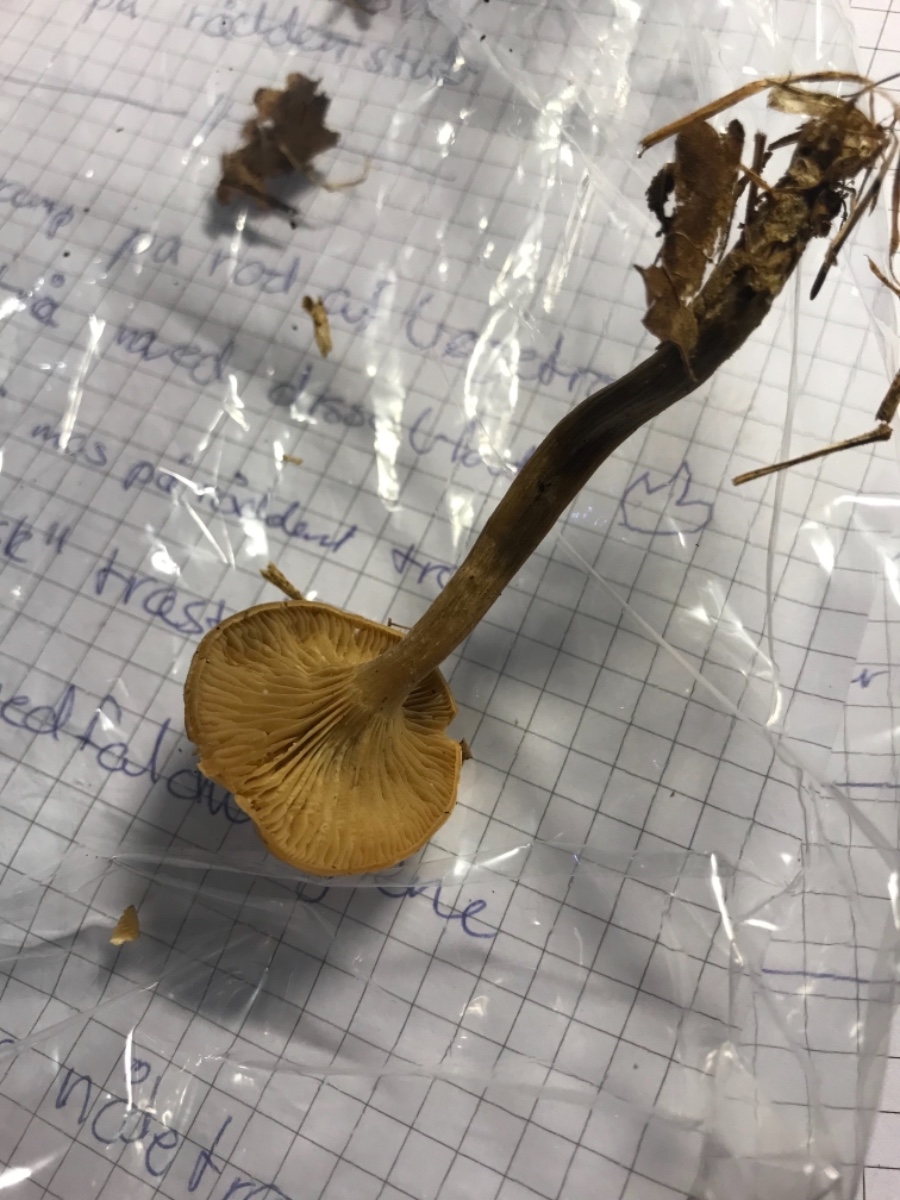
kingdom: Fungi
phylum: Basidiomycota
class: Agaricomycetes
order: Agaricales
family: Pseudoclitocybaceae
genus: Pseudoclitocybe
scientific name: Pseudoclitocybe cyathiformis
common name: almindelig bægertragthat
